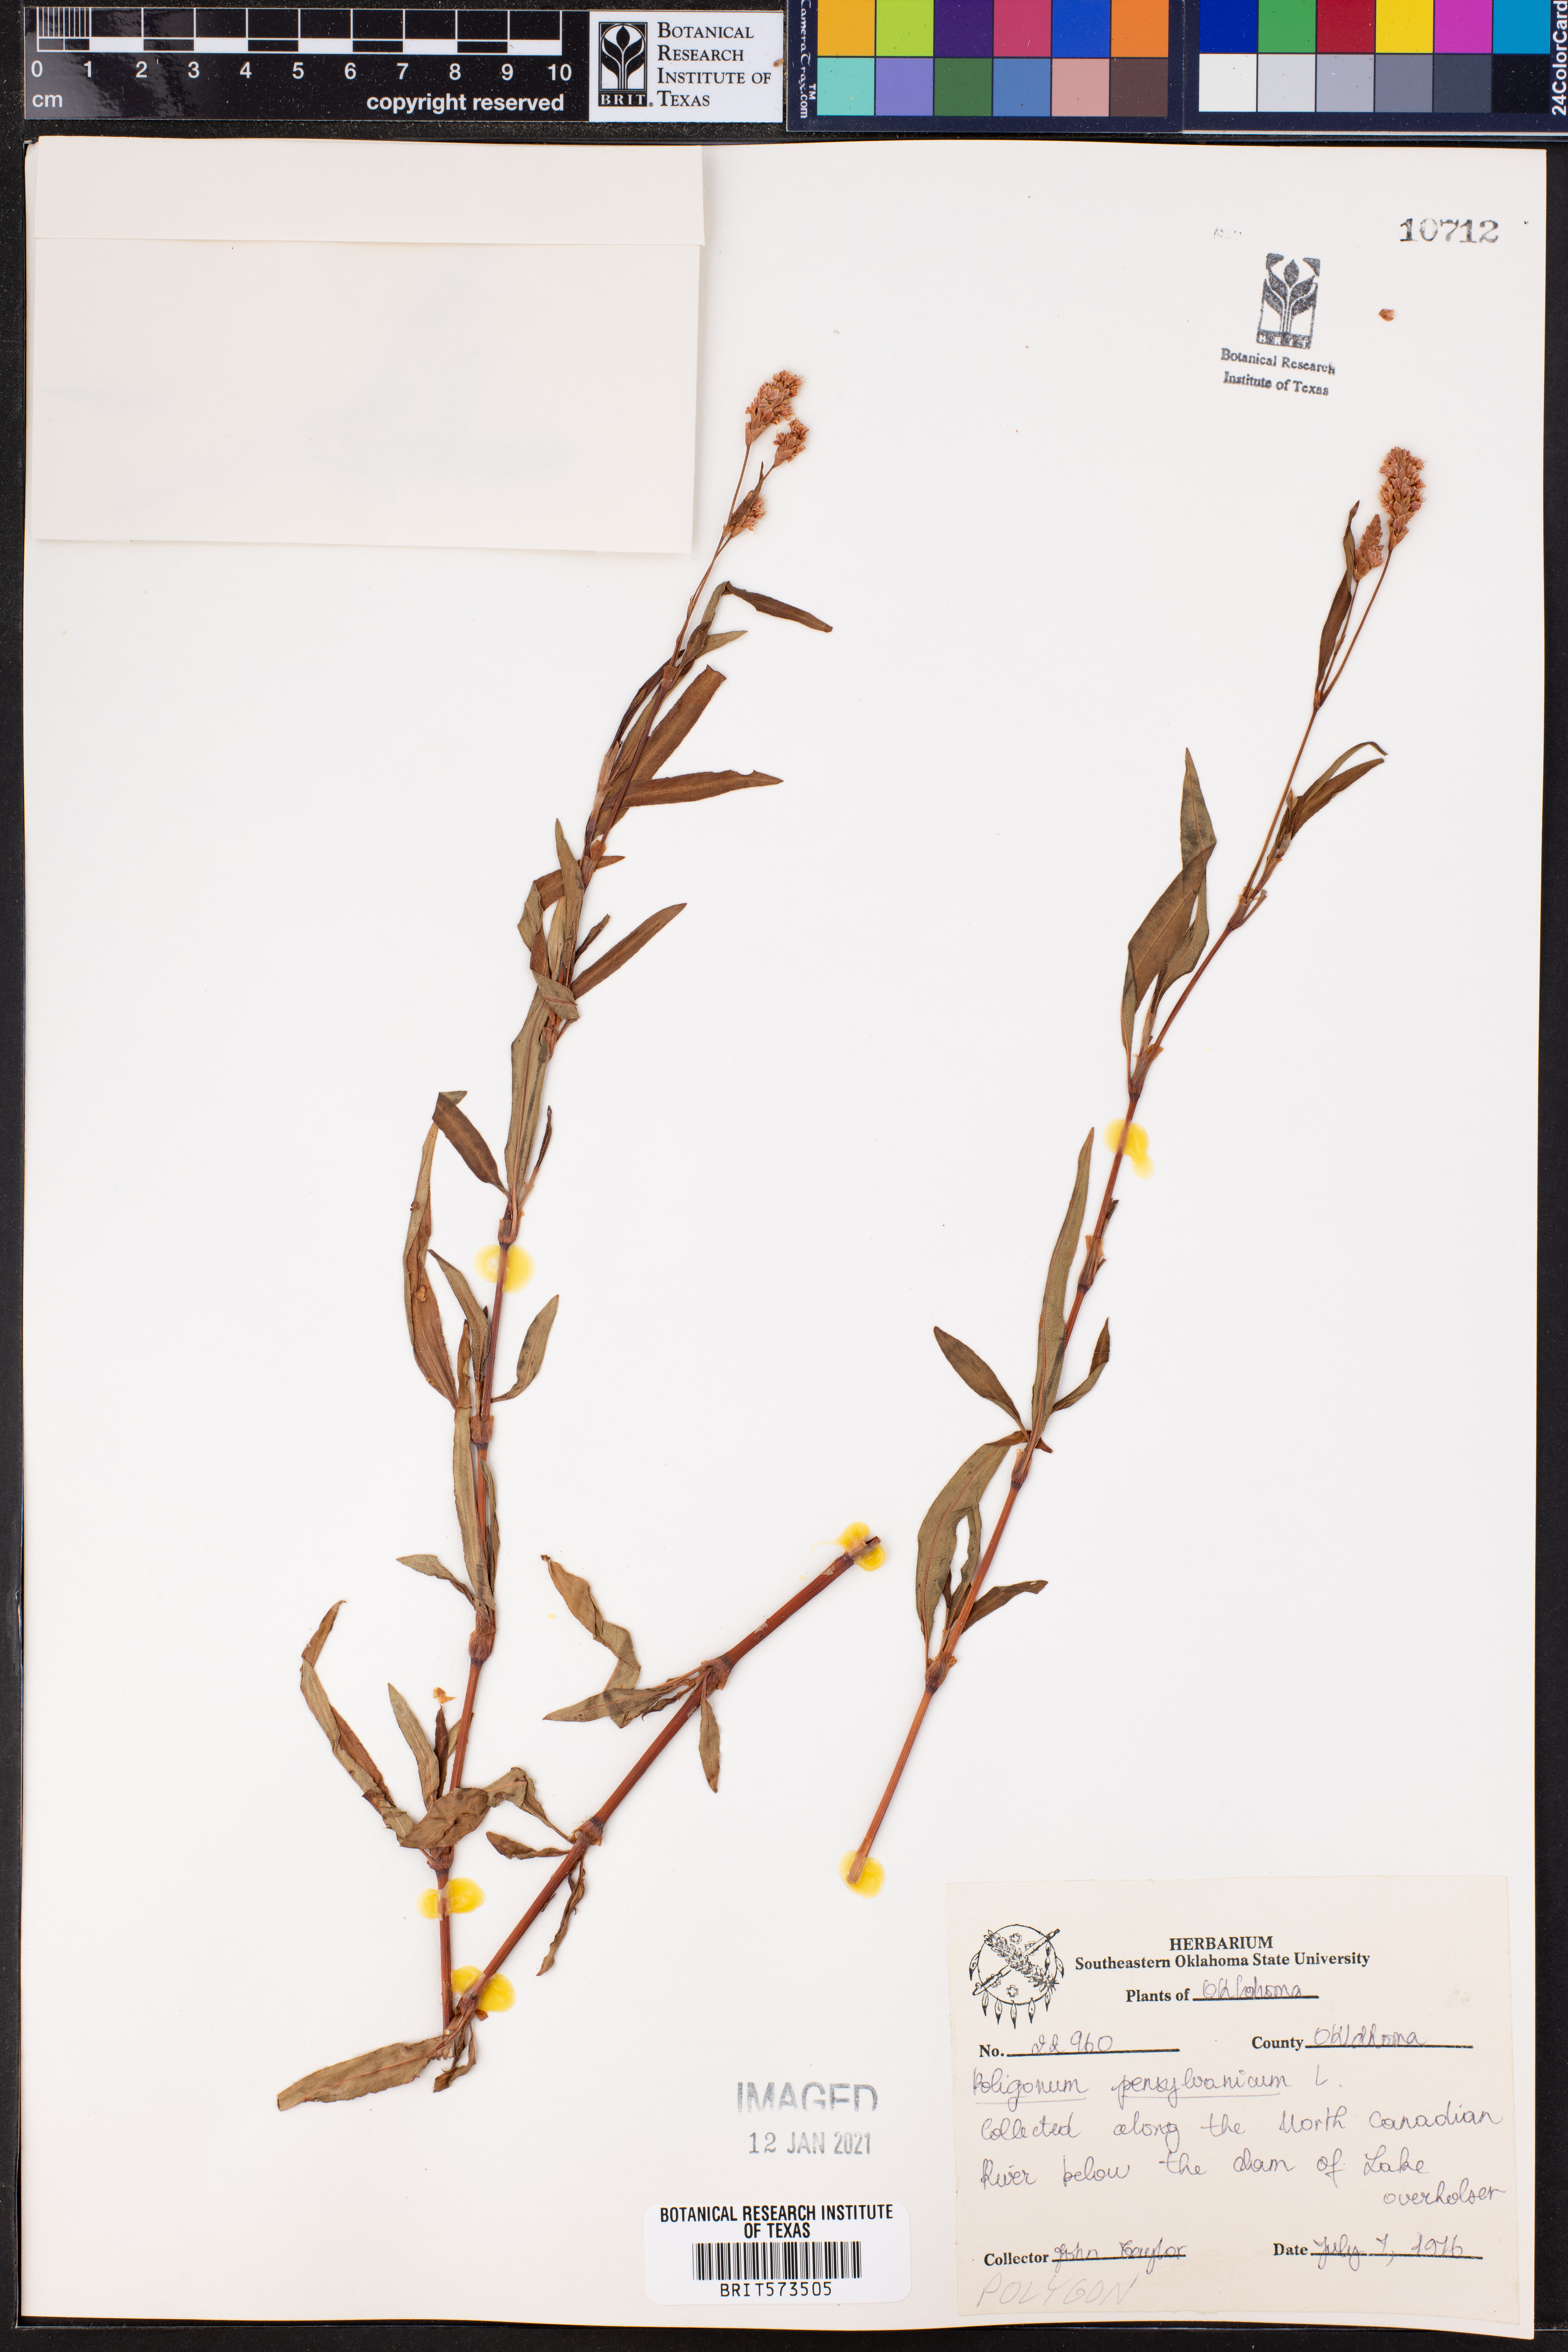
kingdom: Plantae
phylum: Tracheophyta
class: Magnoliopsida
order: Caryophyllales
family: Polygonaceae
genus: Persicaria
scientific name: Persicaria pensylvanica
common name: Pinkweed
